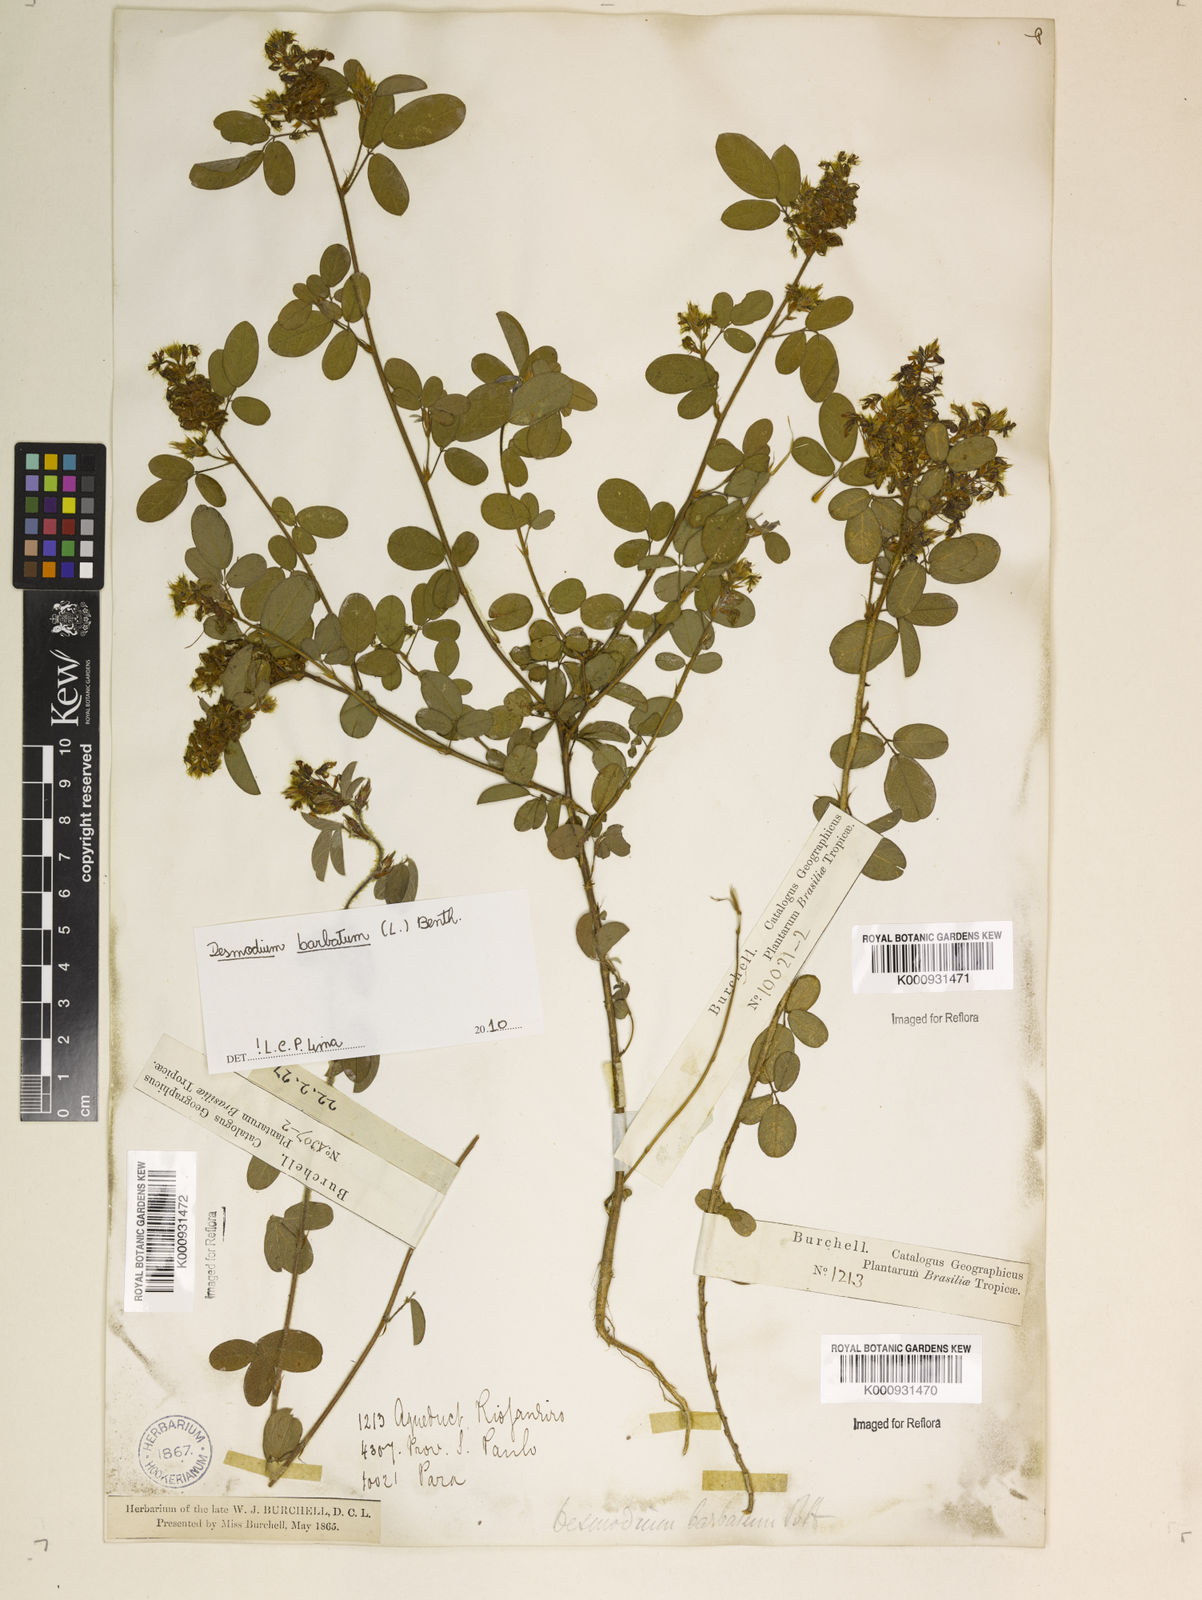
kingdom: Plantae
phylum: Tracheophyta
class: Magnoliopsida
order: Fabales
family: Fabaceae
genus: Grona
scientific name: Grona barbata
